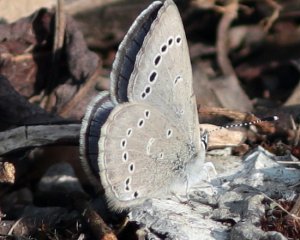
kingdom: Animalia
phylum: Arthropoda
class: Insecta
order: Lepidoptera
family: Lycaenidae
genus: Glaucopsyche
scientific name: Glaucopsyche lygdamus
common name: Silvery Blue
